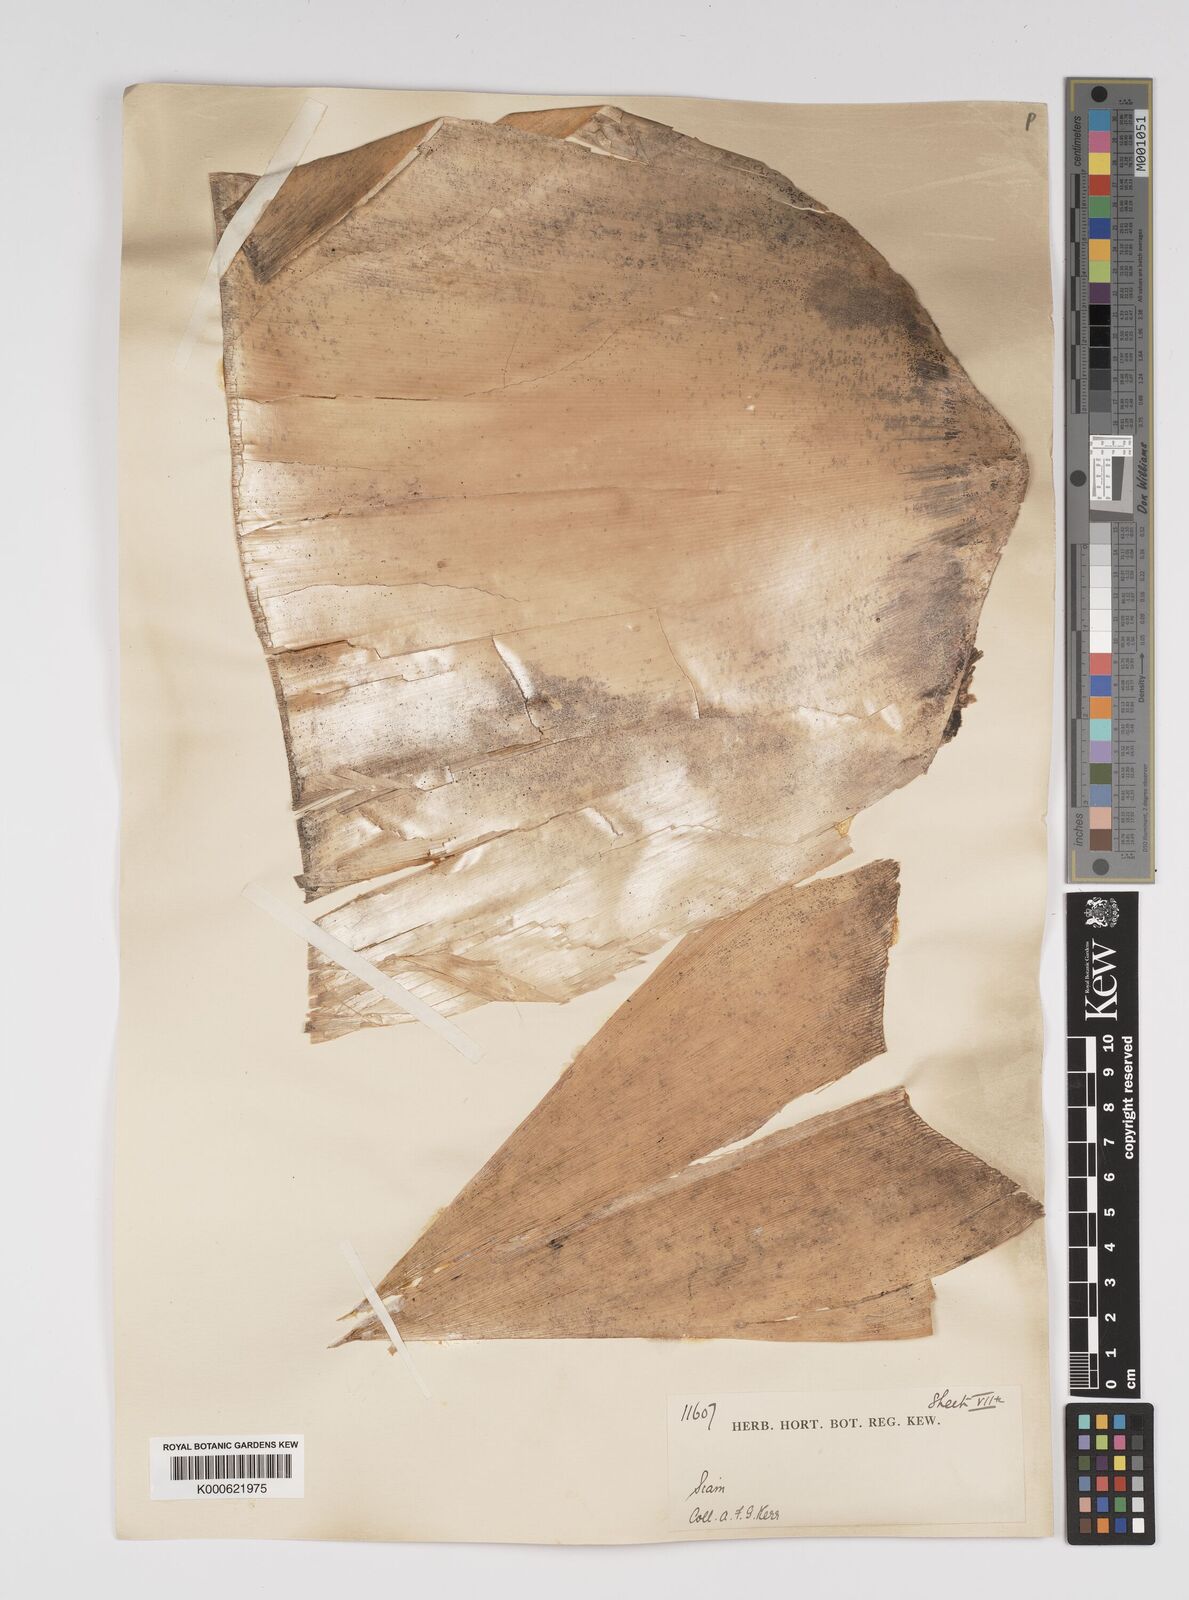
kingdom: Plantae
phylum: Tracheophyta
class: Liliopsida
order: Poales
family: Poaceae
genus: Bambusa
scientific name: Bambusa
